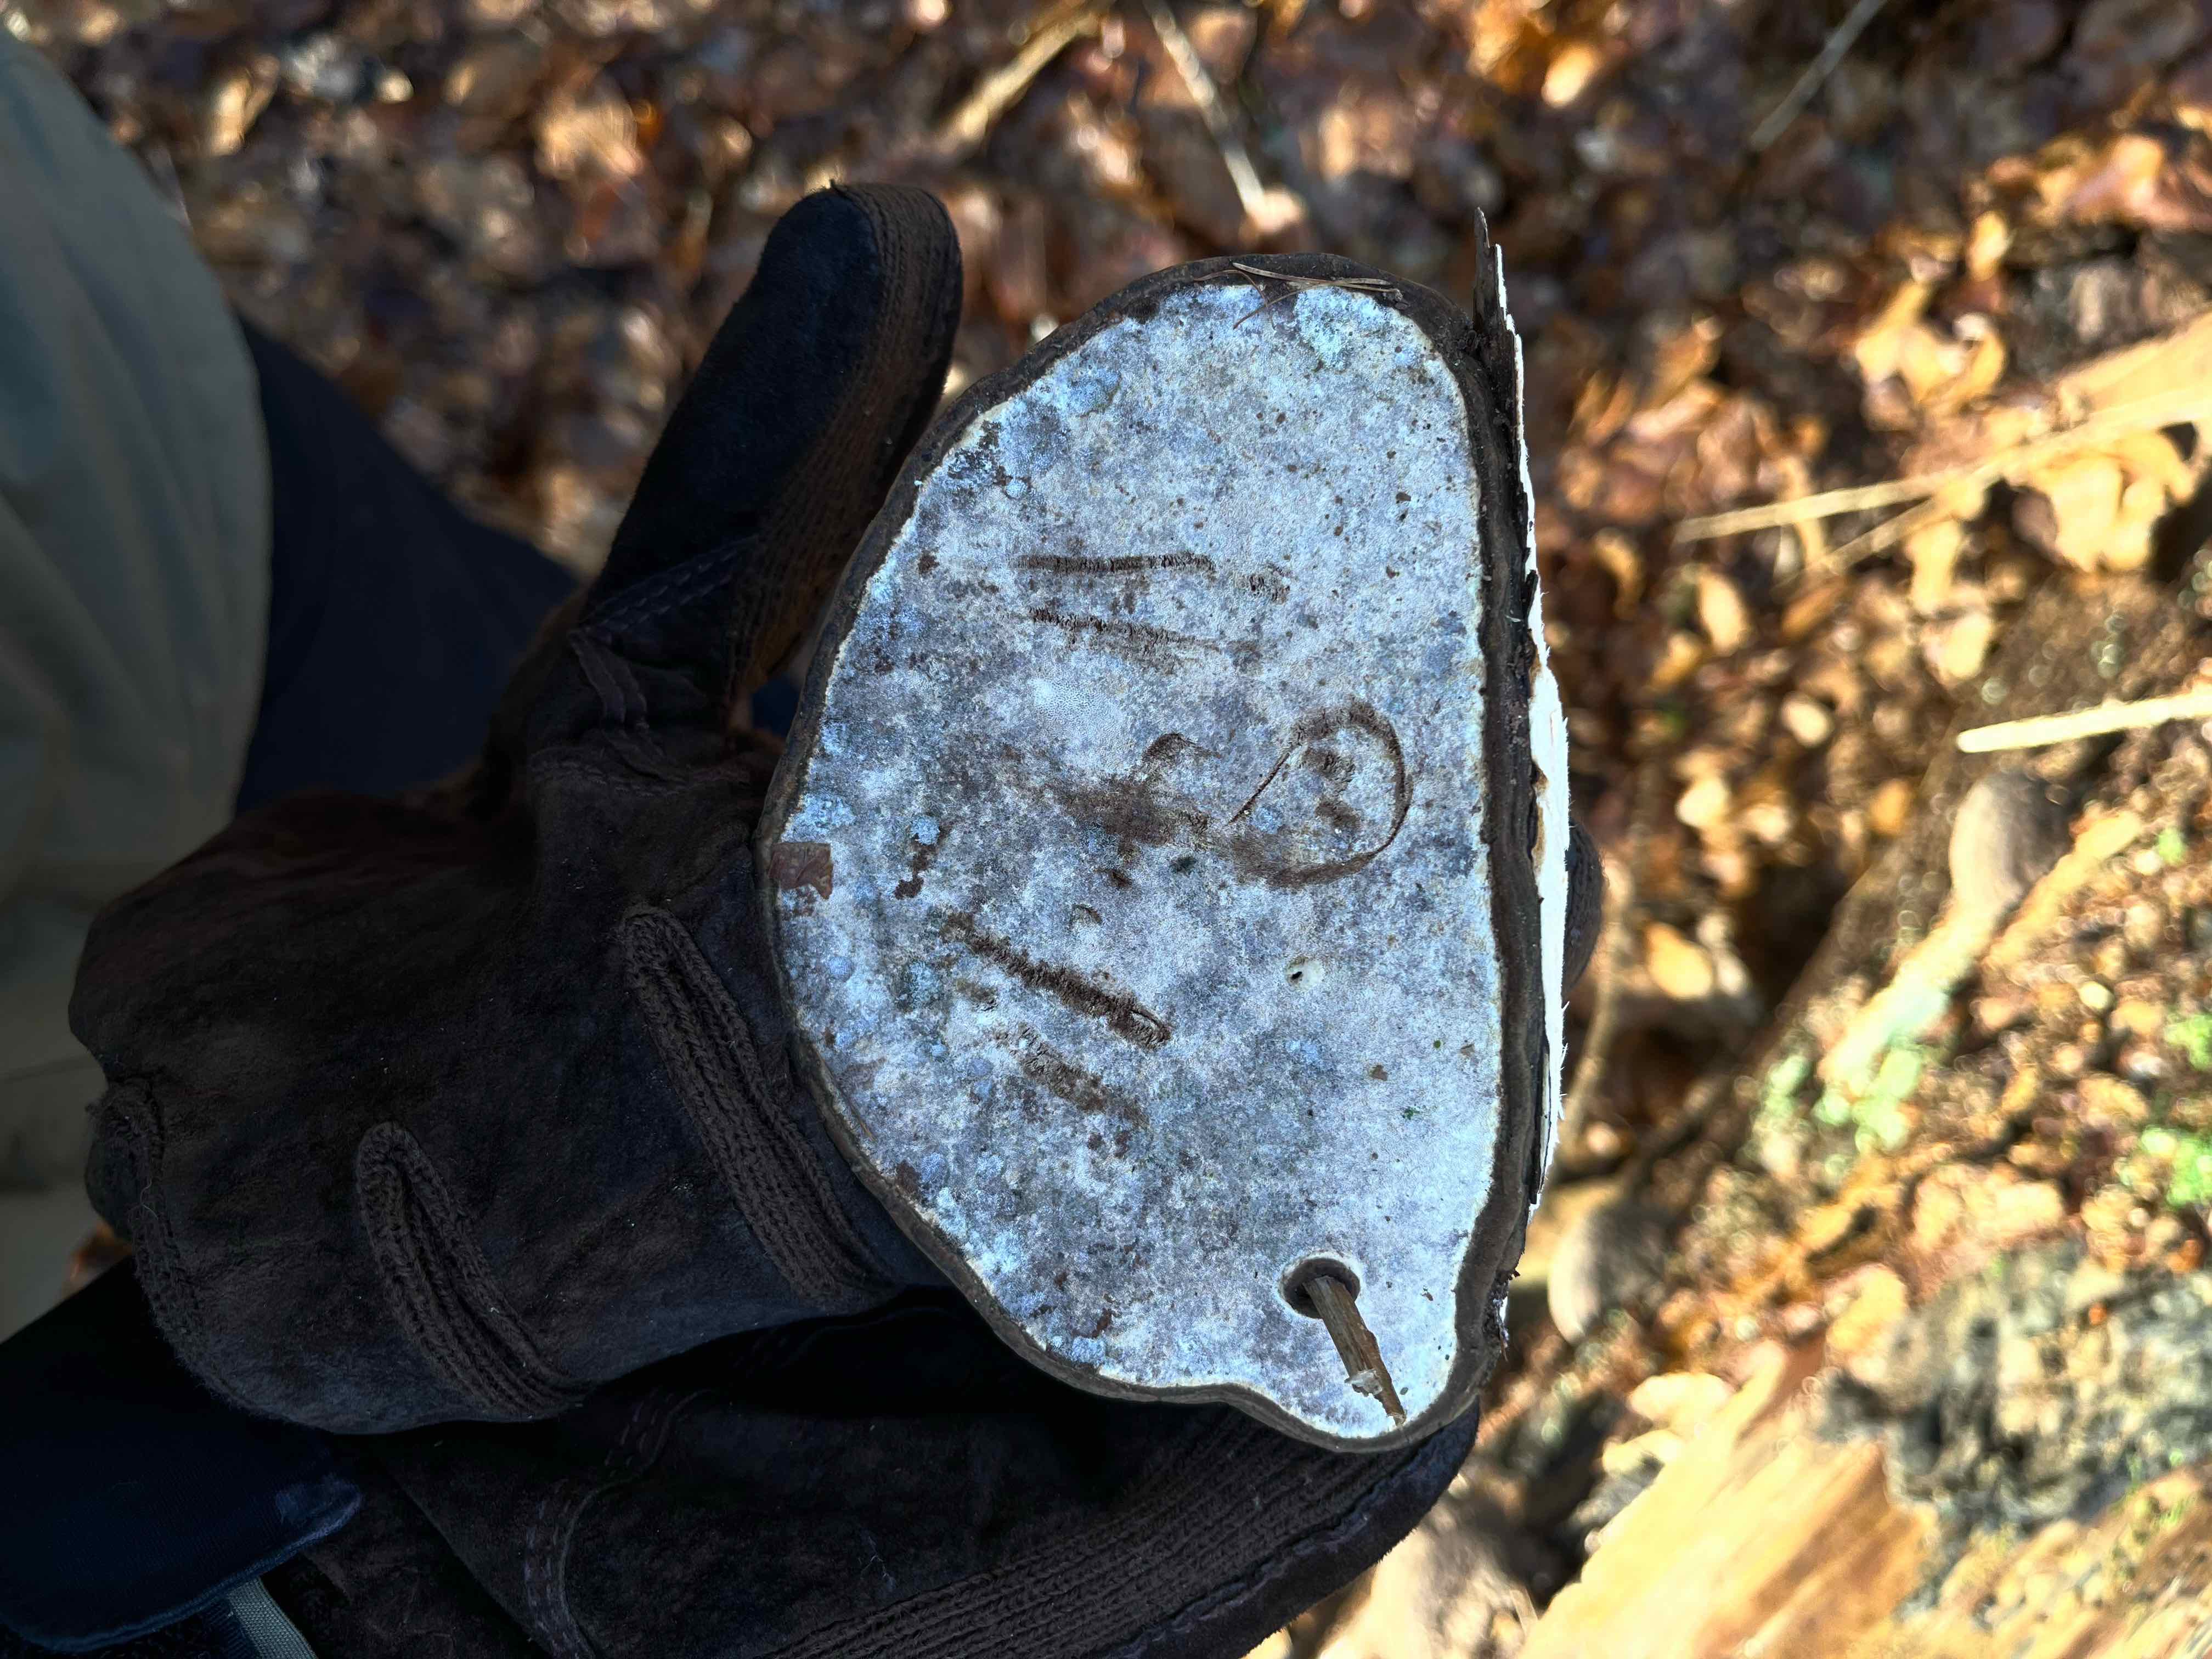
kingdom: Fungi
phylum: Basidiomycota
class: Agaricomycetes
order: Polyporales
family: Polyporaceae
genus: Ganoderma
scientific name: Ganoderma applanatum
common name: flad lakporesvamp
